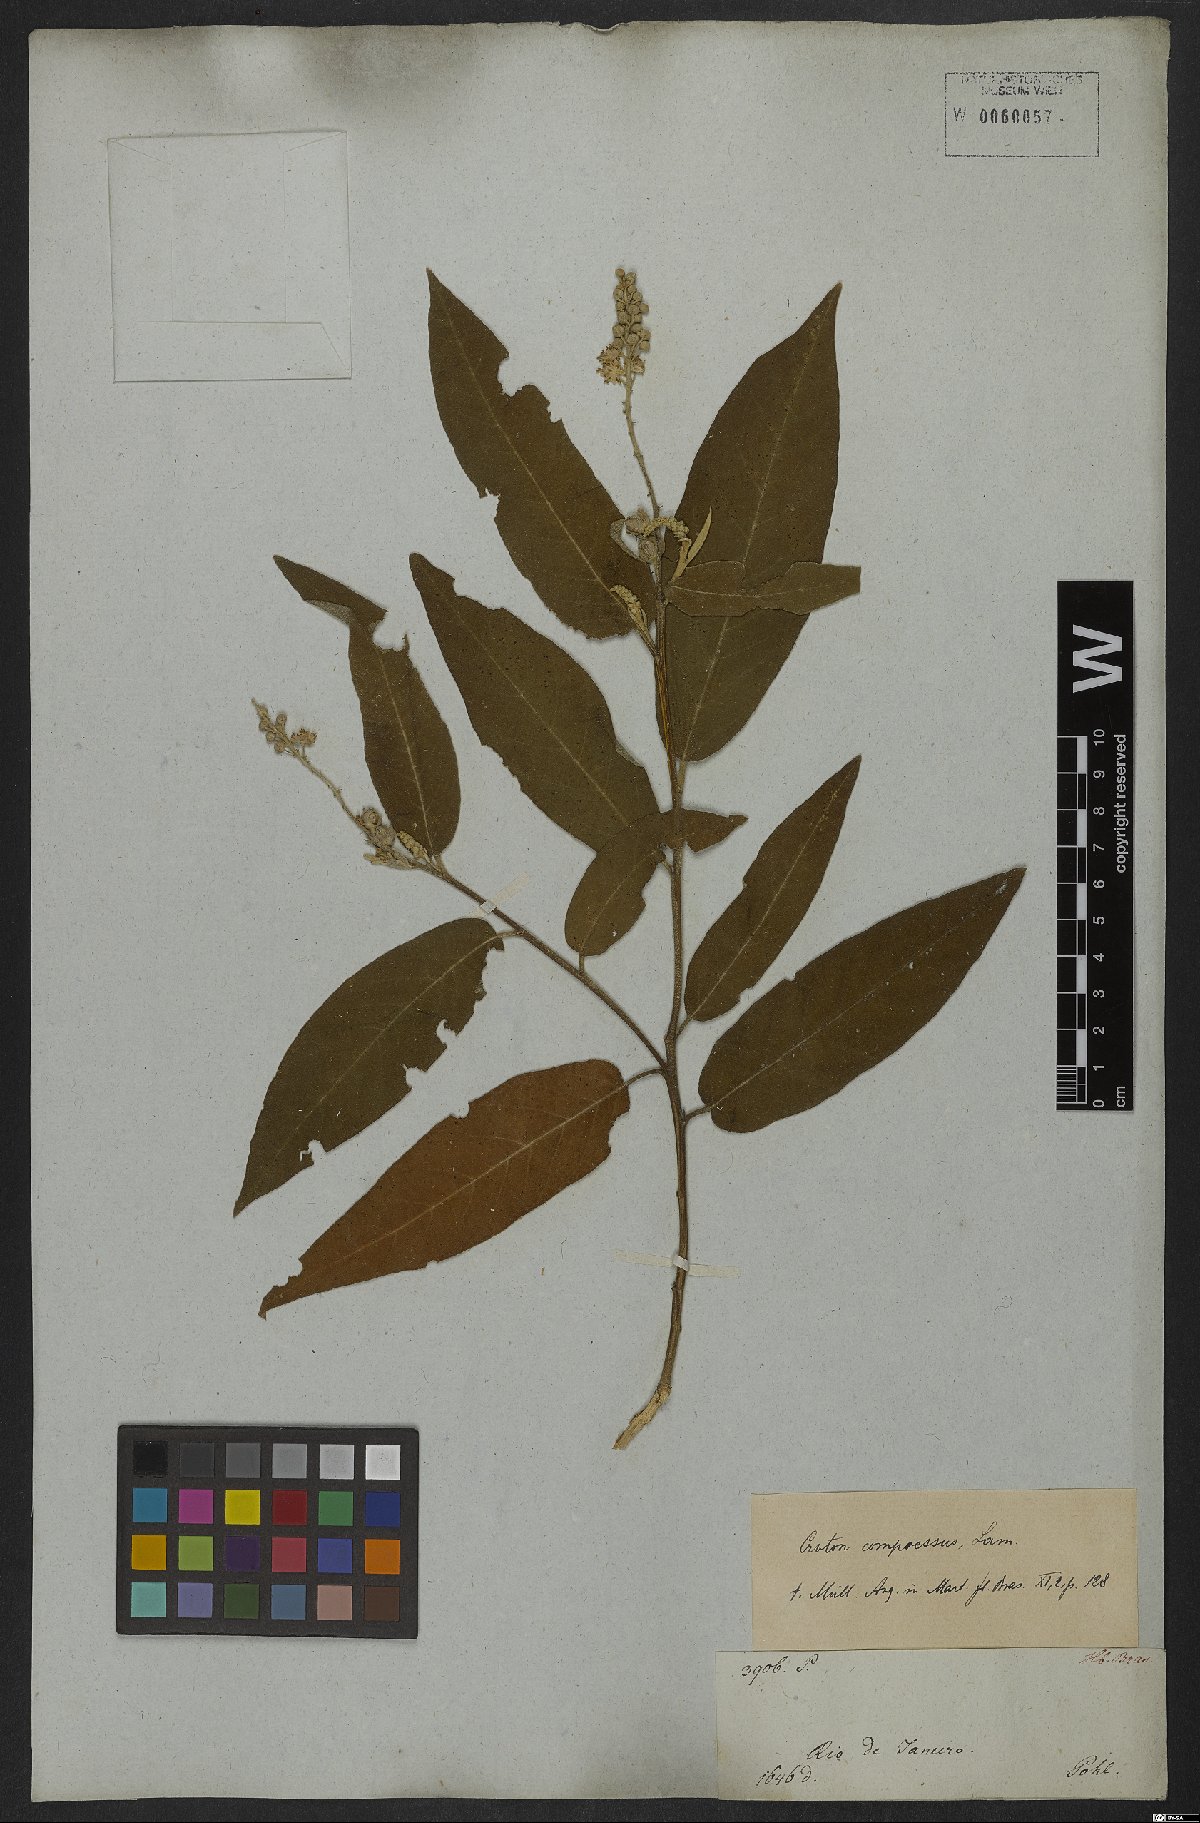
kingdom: Plantae
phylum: Tracheophyta
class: Magnoliopsida
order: Malpighiales
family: Euphorbiaceae
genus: Croton
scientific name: Croton compressus
